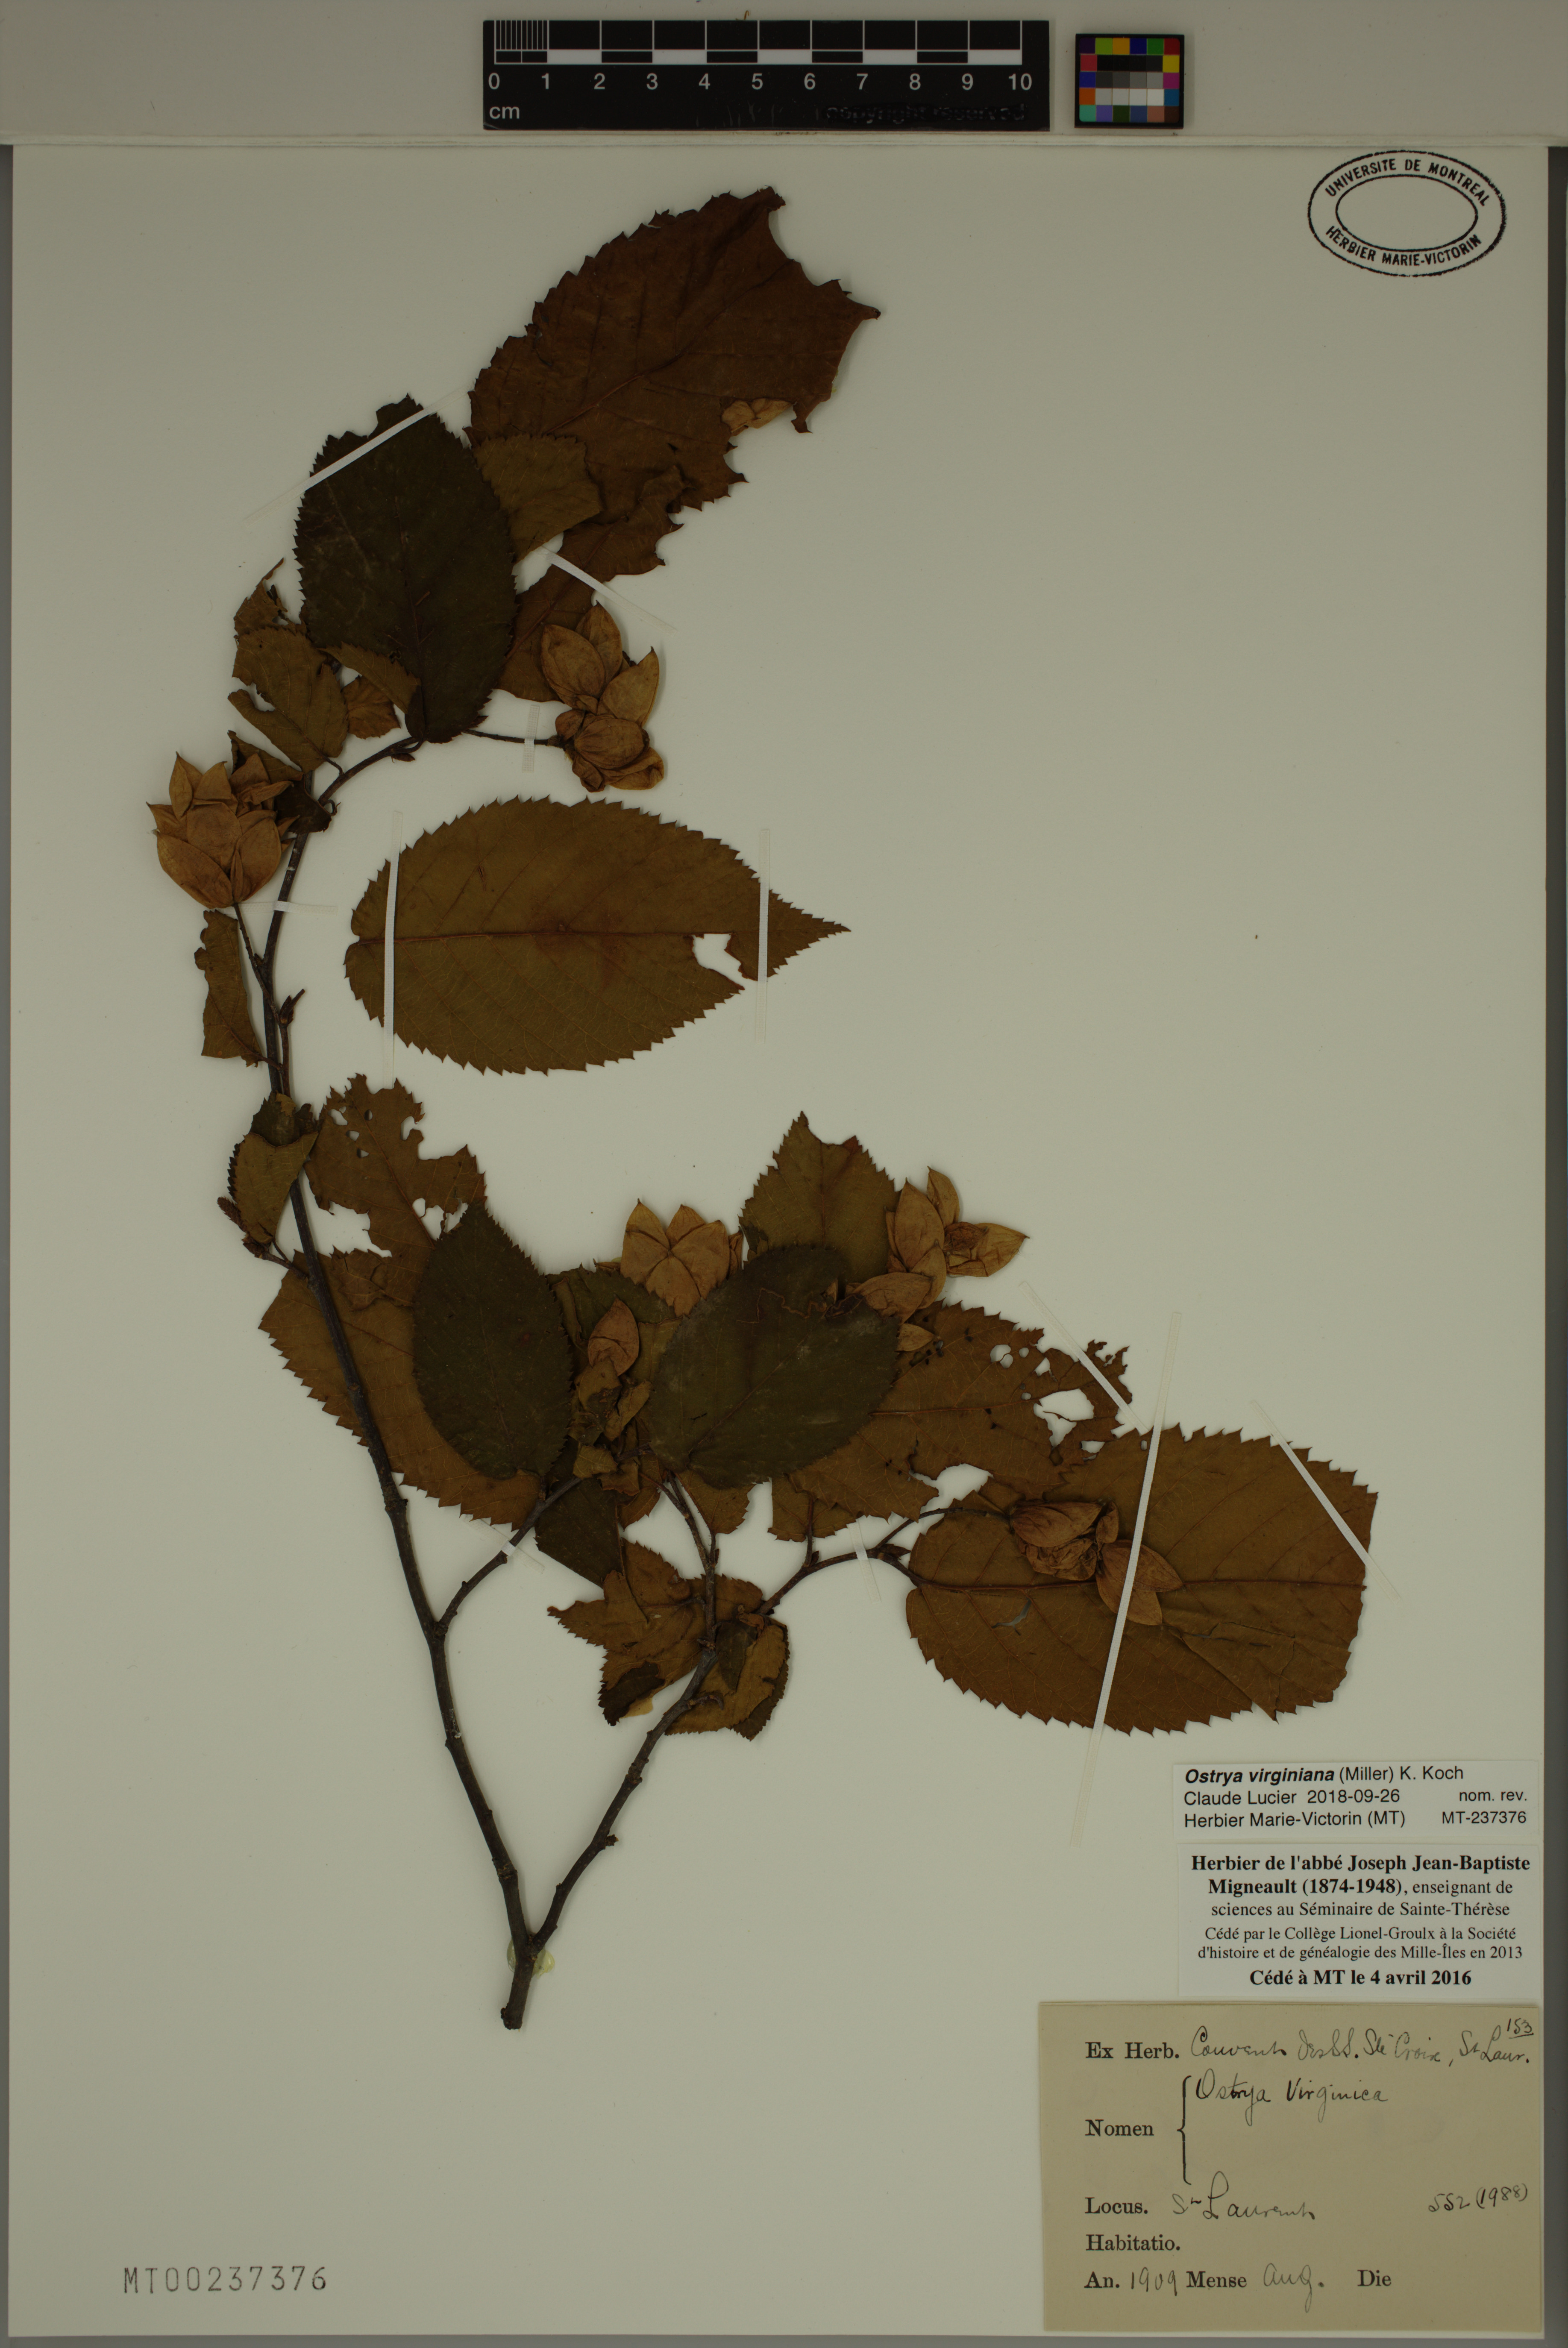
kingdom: Plantae
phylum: Tracheophyta
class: Magnoliopsida
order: Fagales
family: Betulaceae
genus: Ostrya
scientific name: Ostrya virginiana
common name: Ironwood
